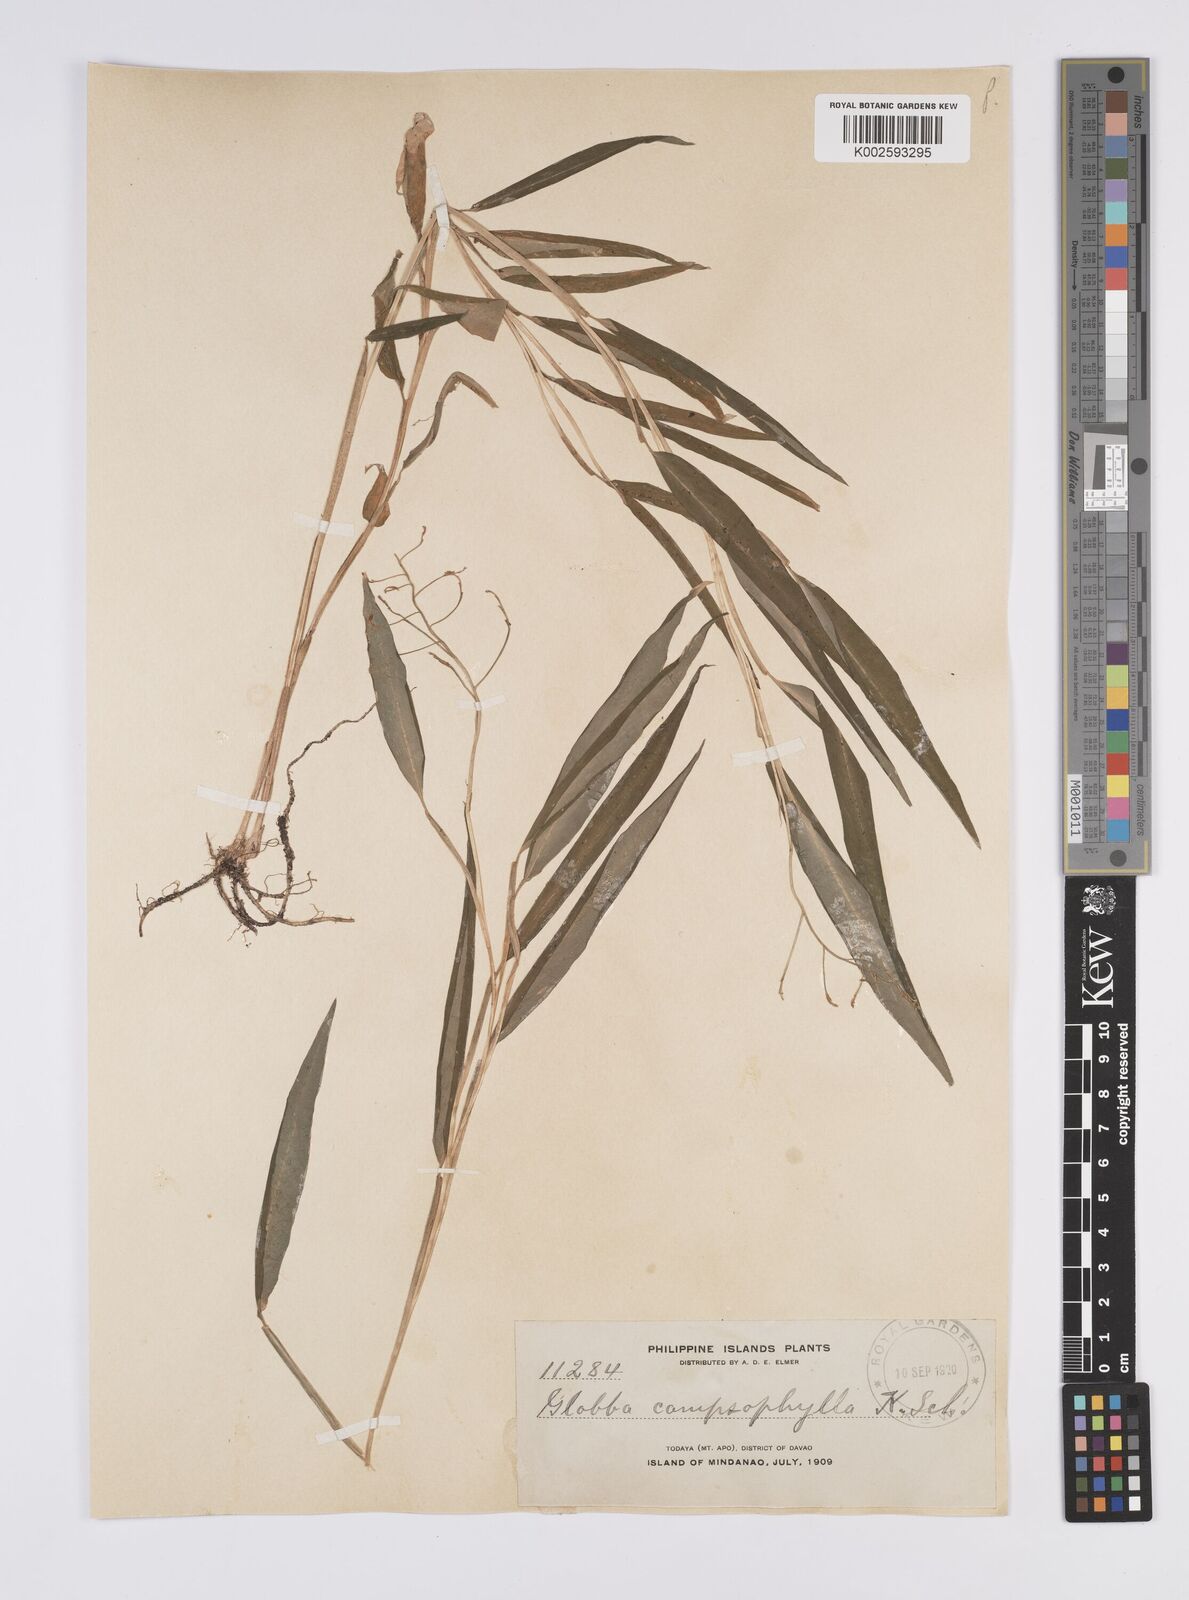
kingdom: Plantae
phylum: Tracheophyta
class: Liliopsida
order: Zingiberales
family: Zingiberaceae
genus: Globba
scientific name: Globba campsophylla
